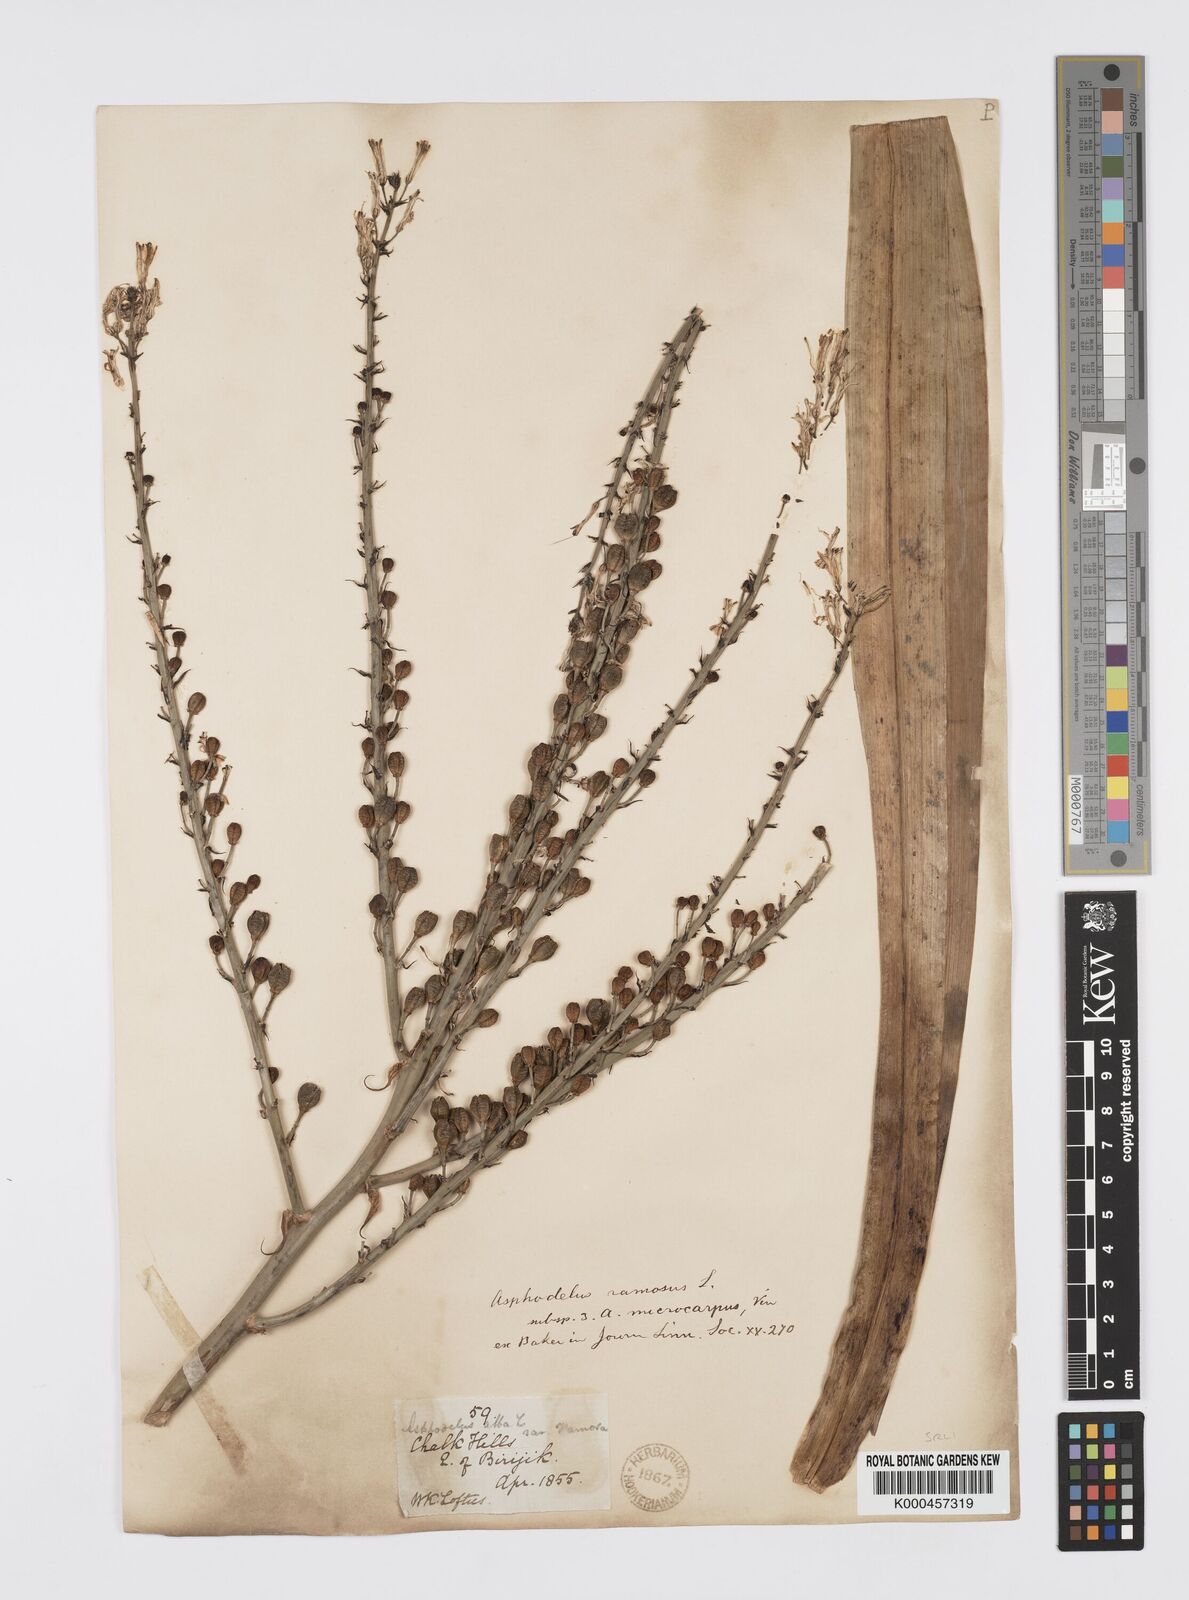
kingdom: Plantae
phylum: Tracheophyta
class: Liliopsida
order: Asparagales
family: Asphodelaceae
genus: Asphodelus
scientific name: Asphodelus aestivus
